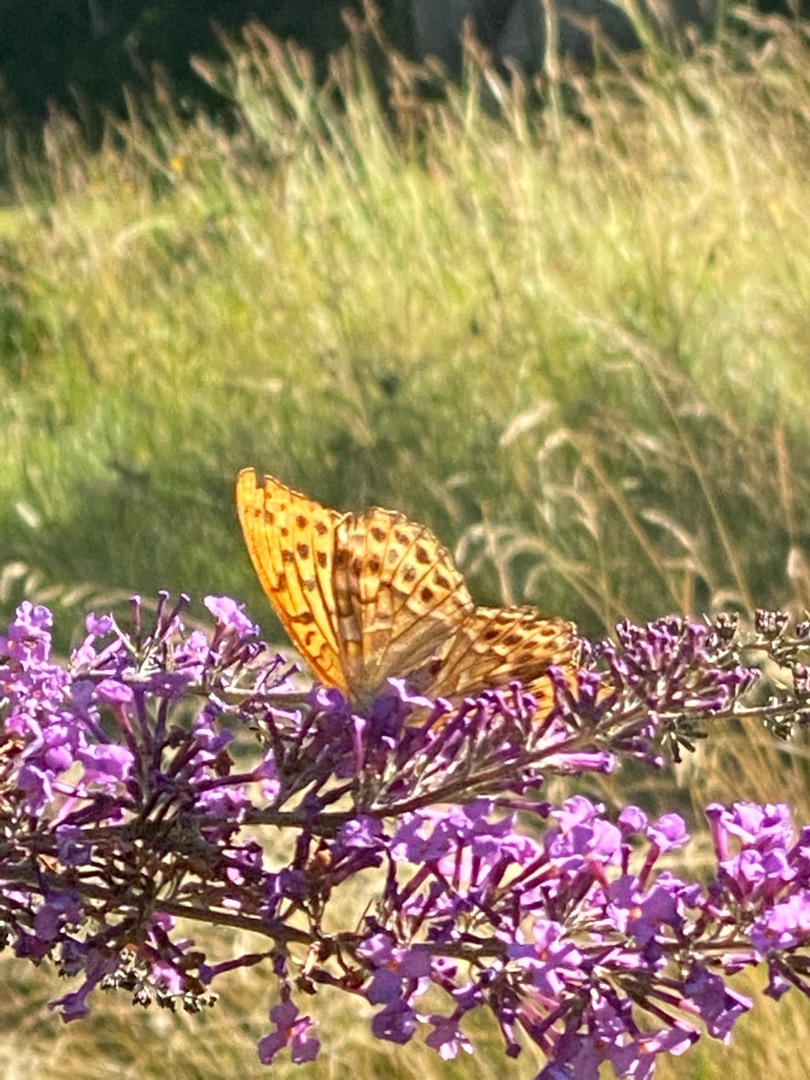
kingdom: Animalia
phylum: Arthropoda
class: Insecta
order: Lepidoptera
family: Nymphalidae
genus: Argynnis
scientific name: Argynnis paphia
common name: Kejserkåbe
